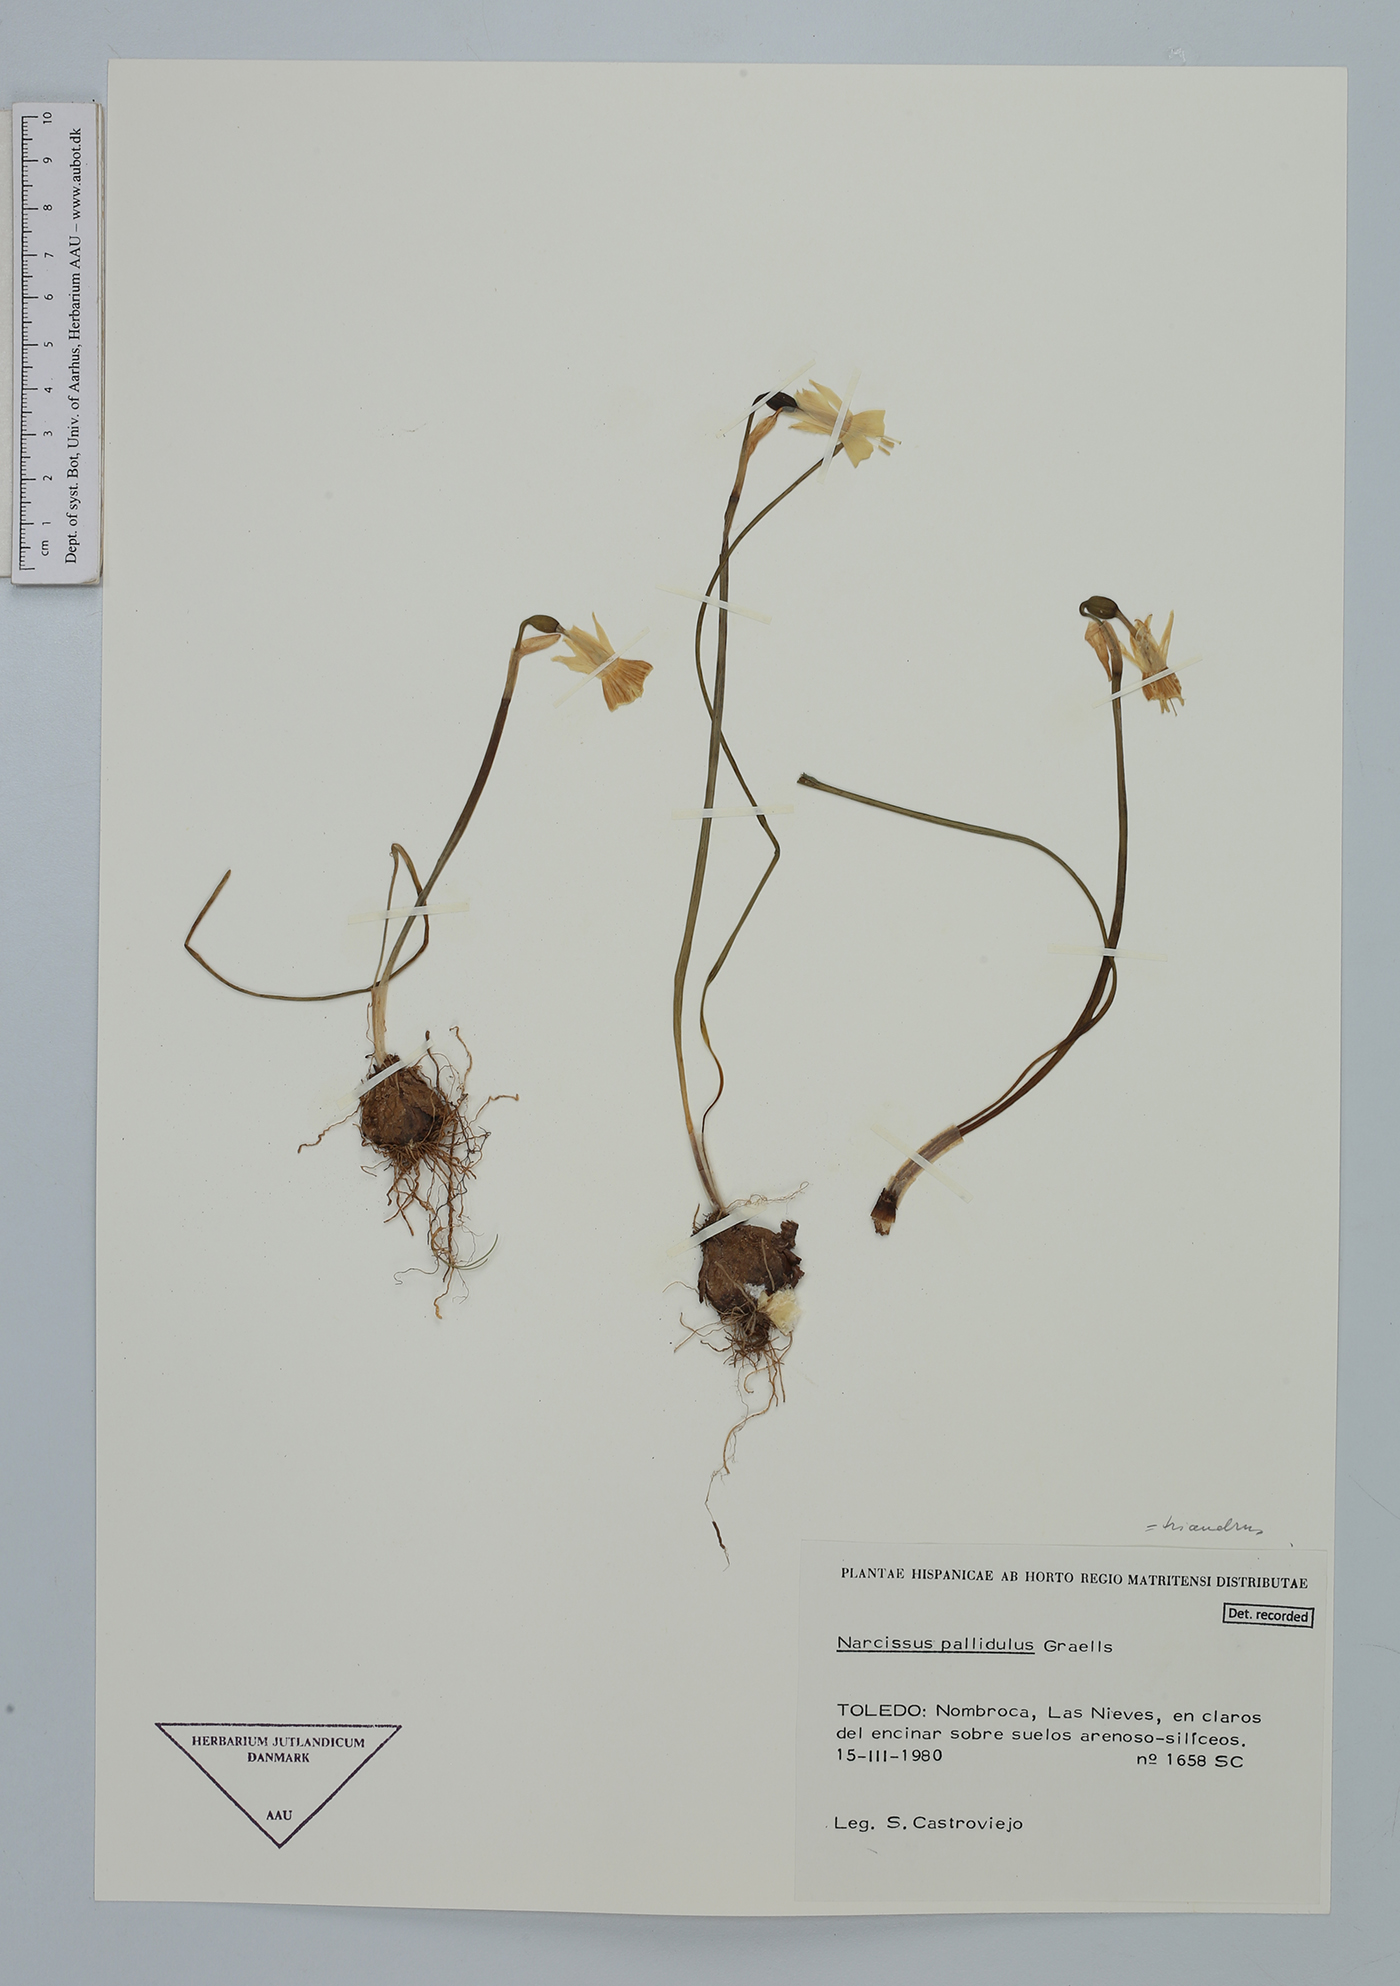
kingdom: Plantae
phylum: Tracheophyta
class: Liliopsida
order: Asparagales
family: Amaryllidaceae
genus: Narcissus
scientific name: Narcissus triandrus
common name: Angel's-tears
